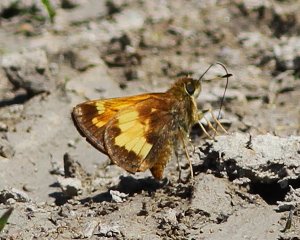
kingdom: Animalia
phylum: Arthropoda
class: Insecta
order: Lepidoptera
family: Hesperiidae
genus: Lon
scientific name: Lon hobomok
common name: Hobomok Skipper
